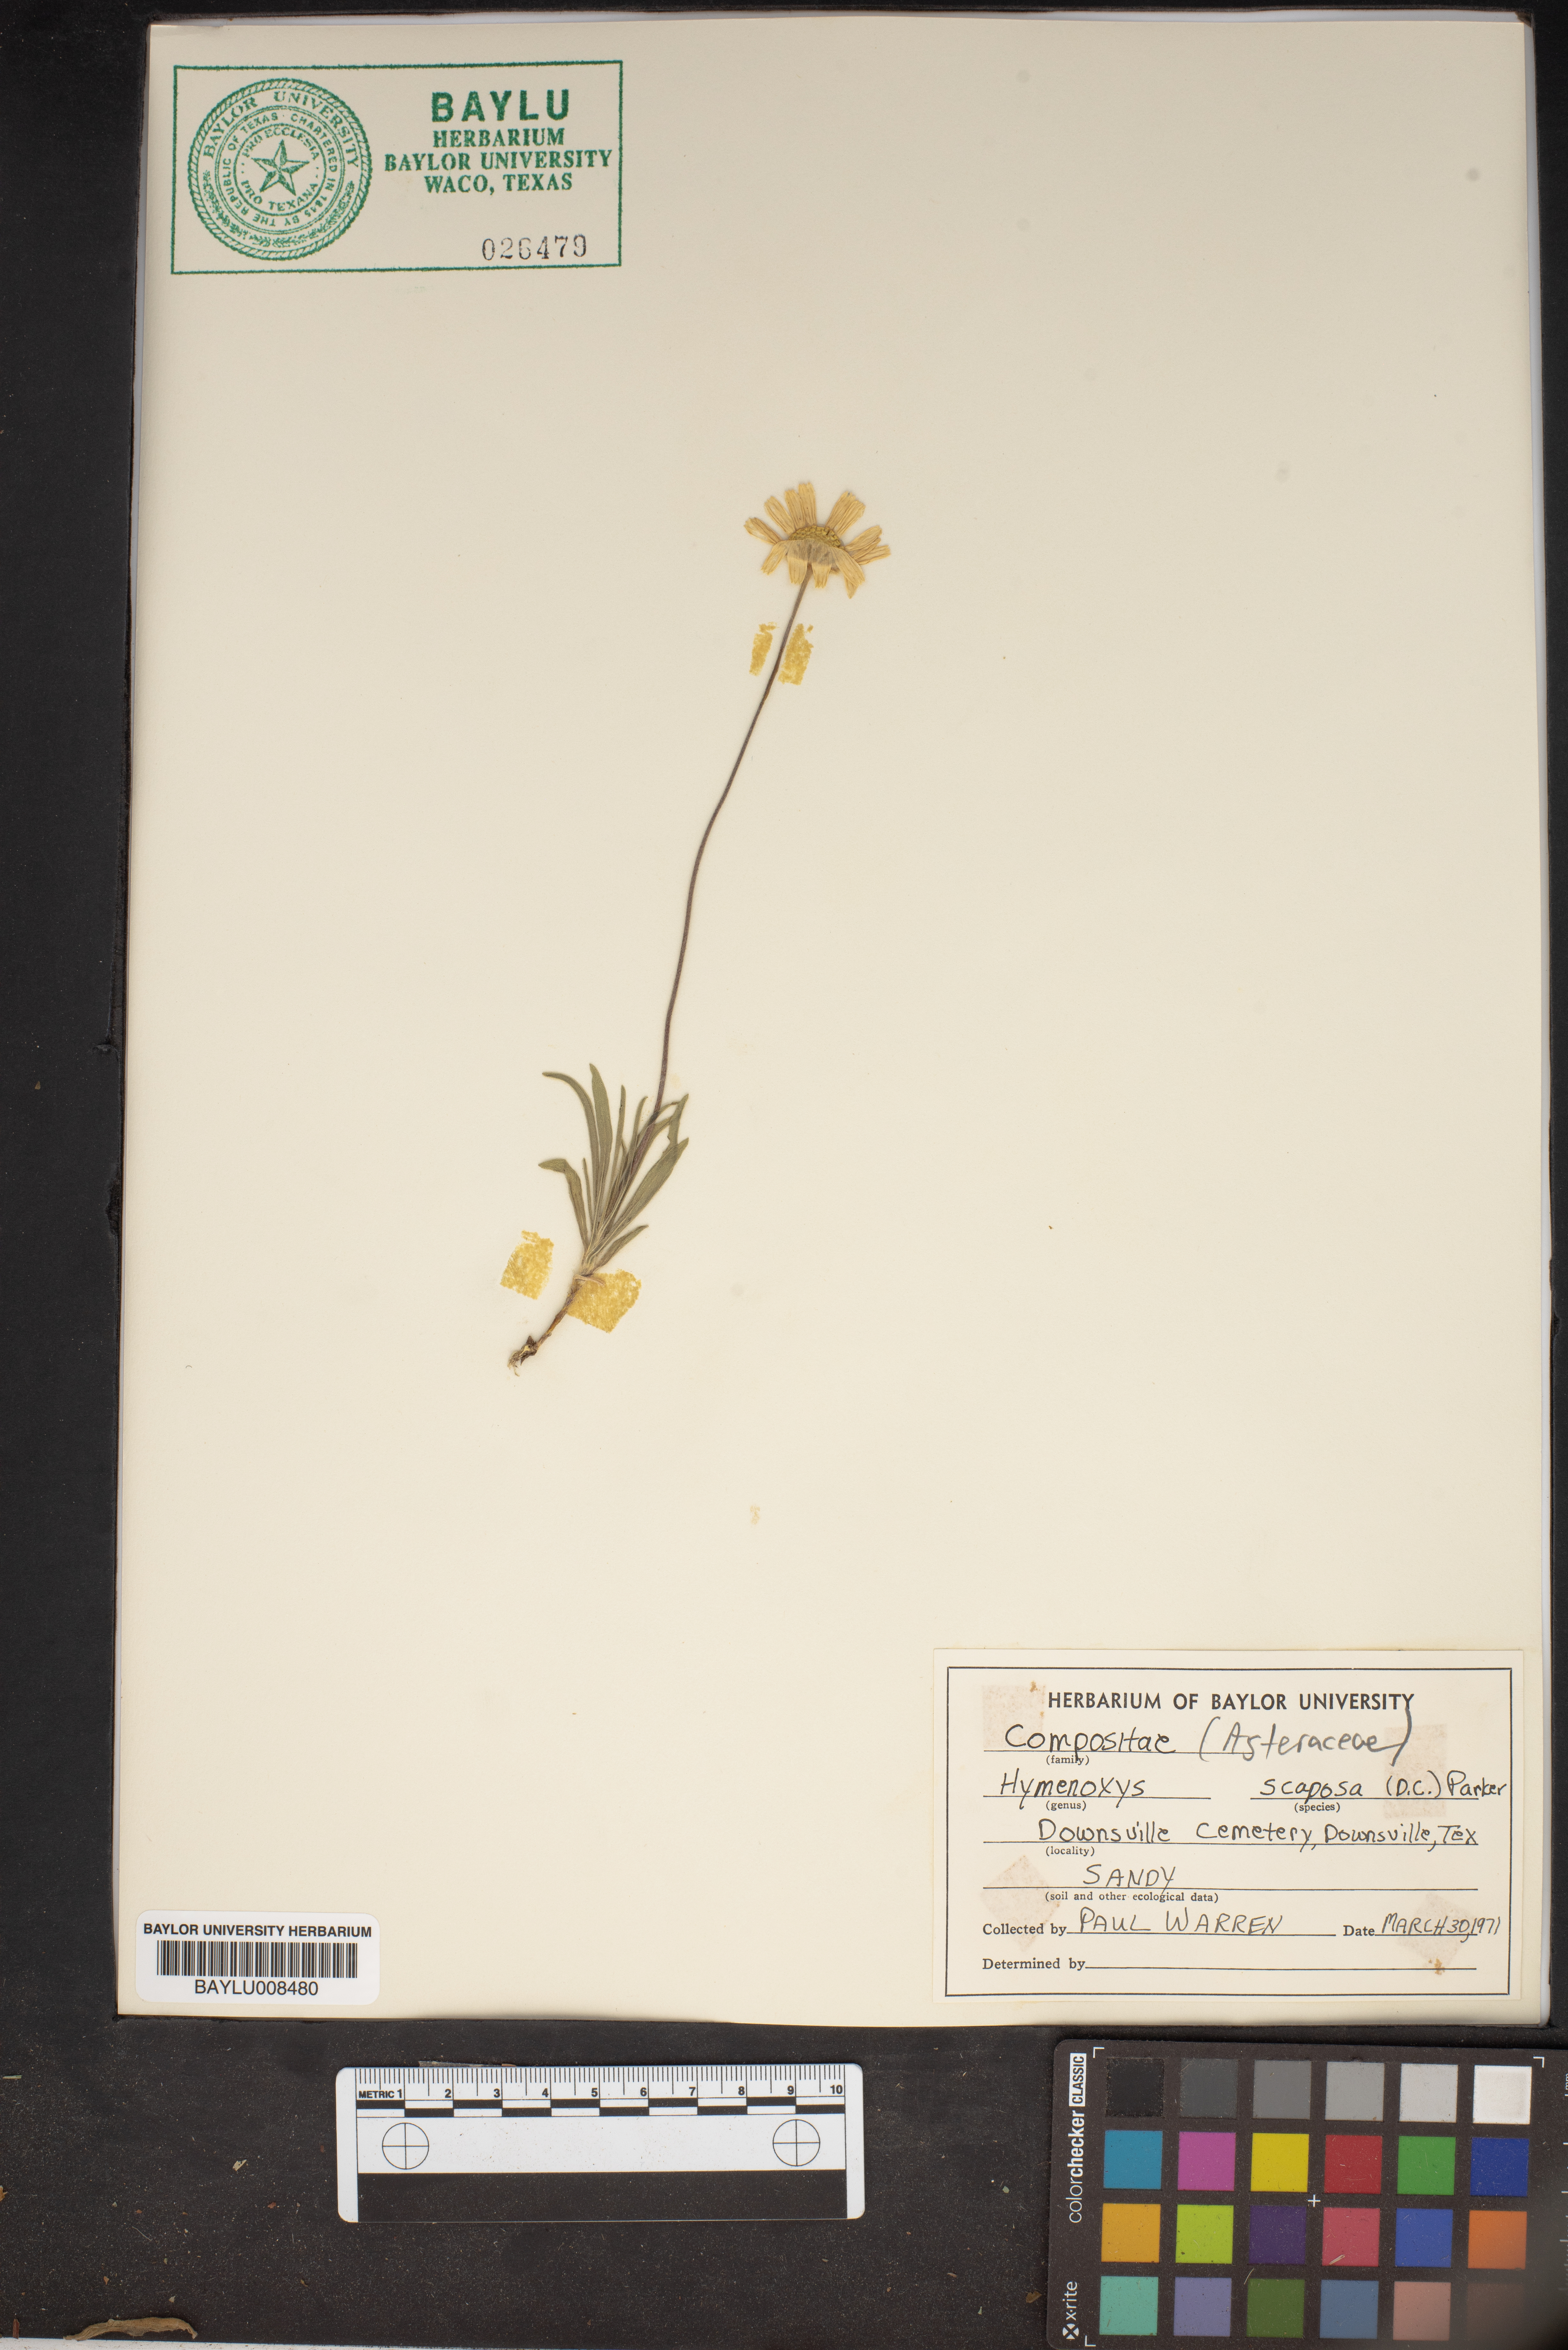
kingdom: Plantae
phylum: Tracheophyta
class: Magnoliopsida
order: Asterales
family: Asteraceae
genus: Tetraneuris
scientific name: Tetraneuris scaposa
